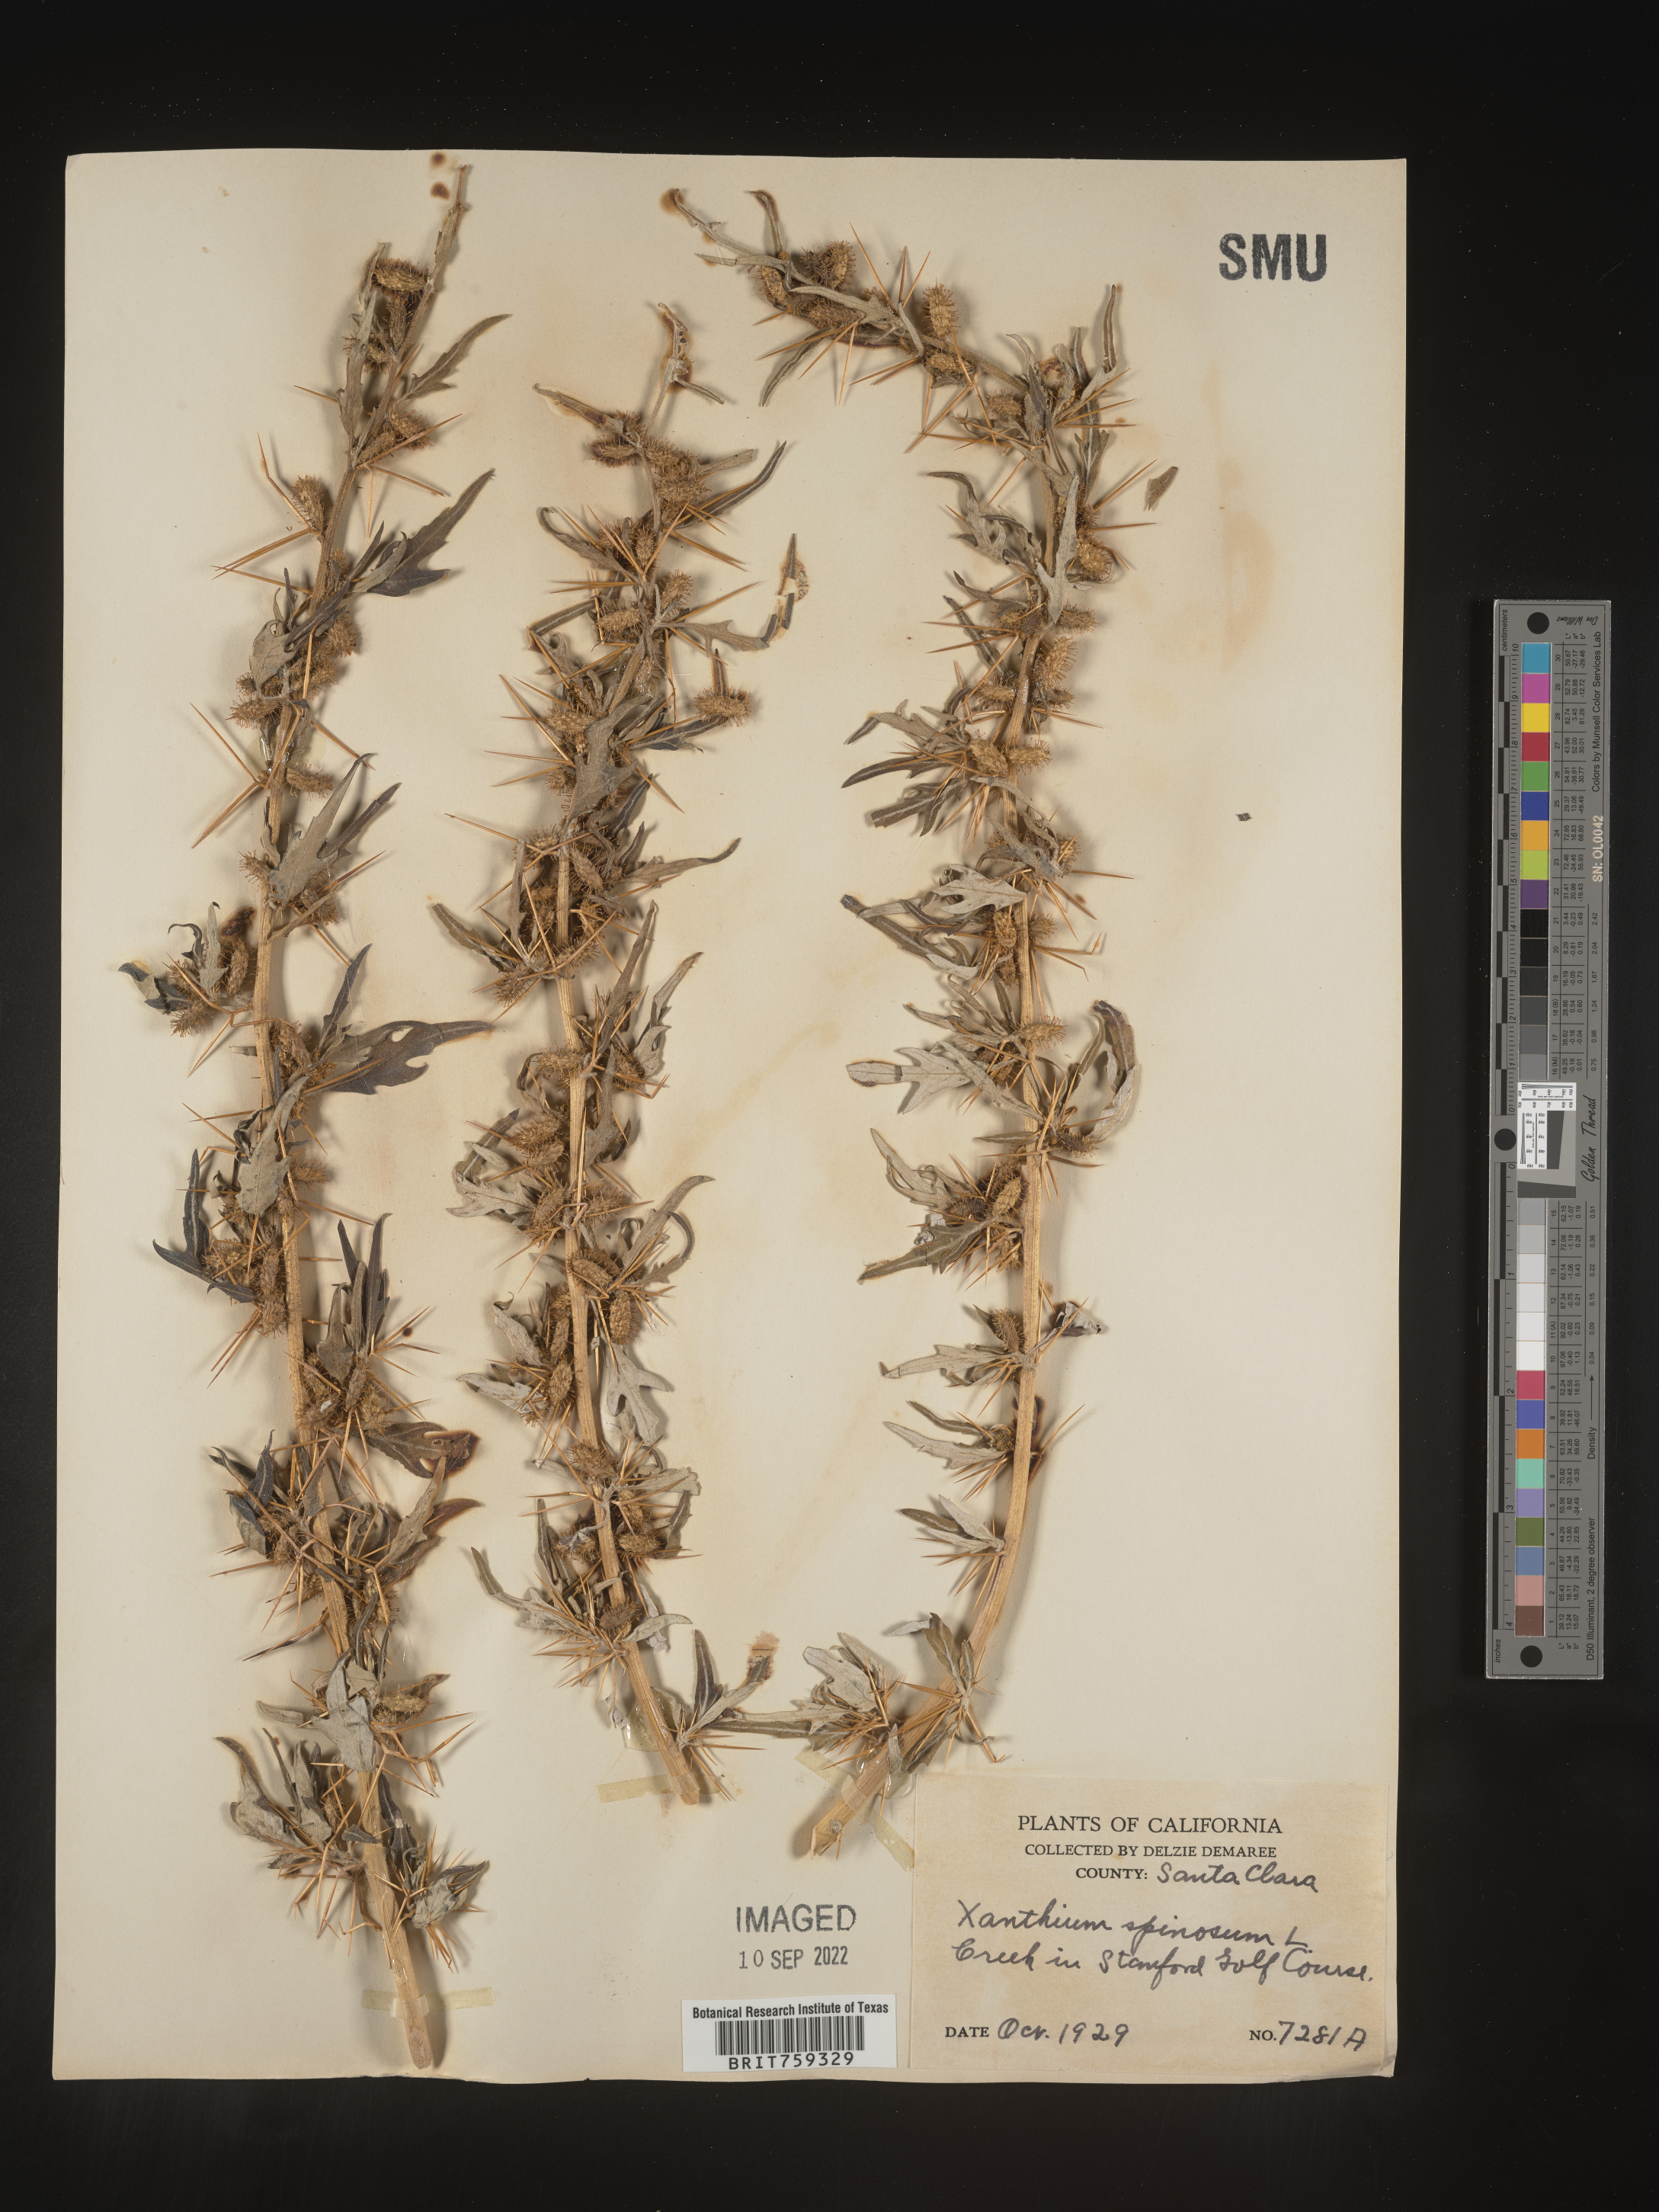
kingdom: Plantae
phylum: Tracheophyta
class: Magnoliopsida
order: Asterales
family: Asteraceae
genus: Xanthium
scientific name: Xanthium spinosum
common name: Spiny cocklebur
